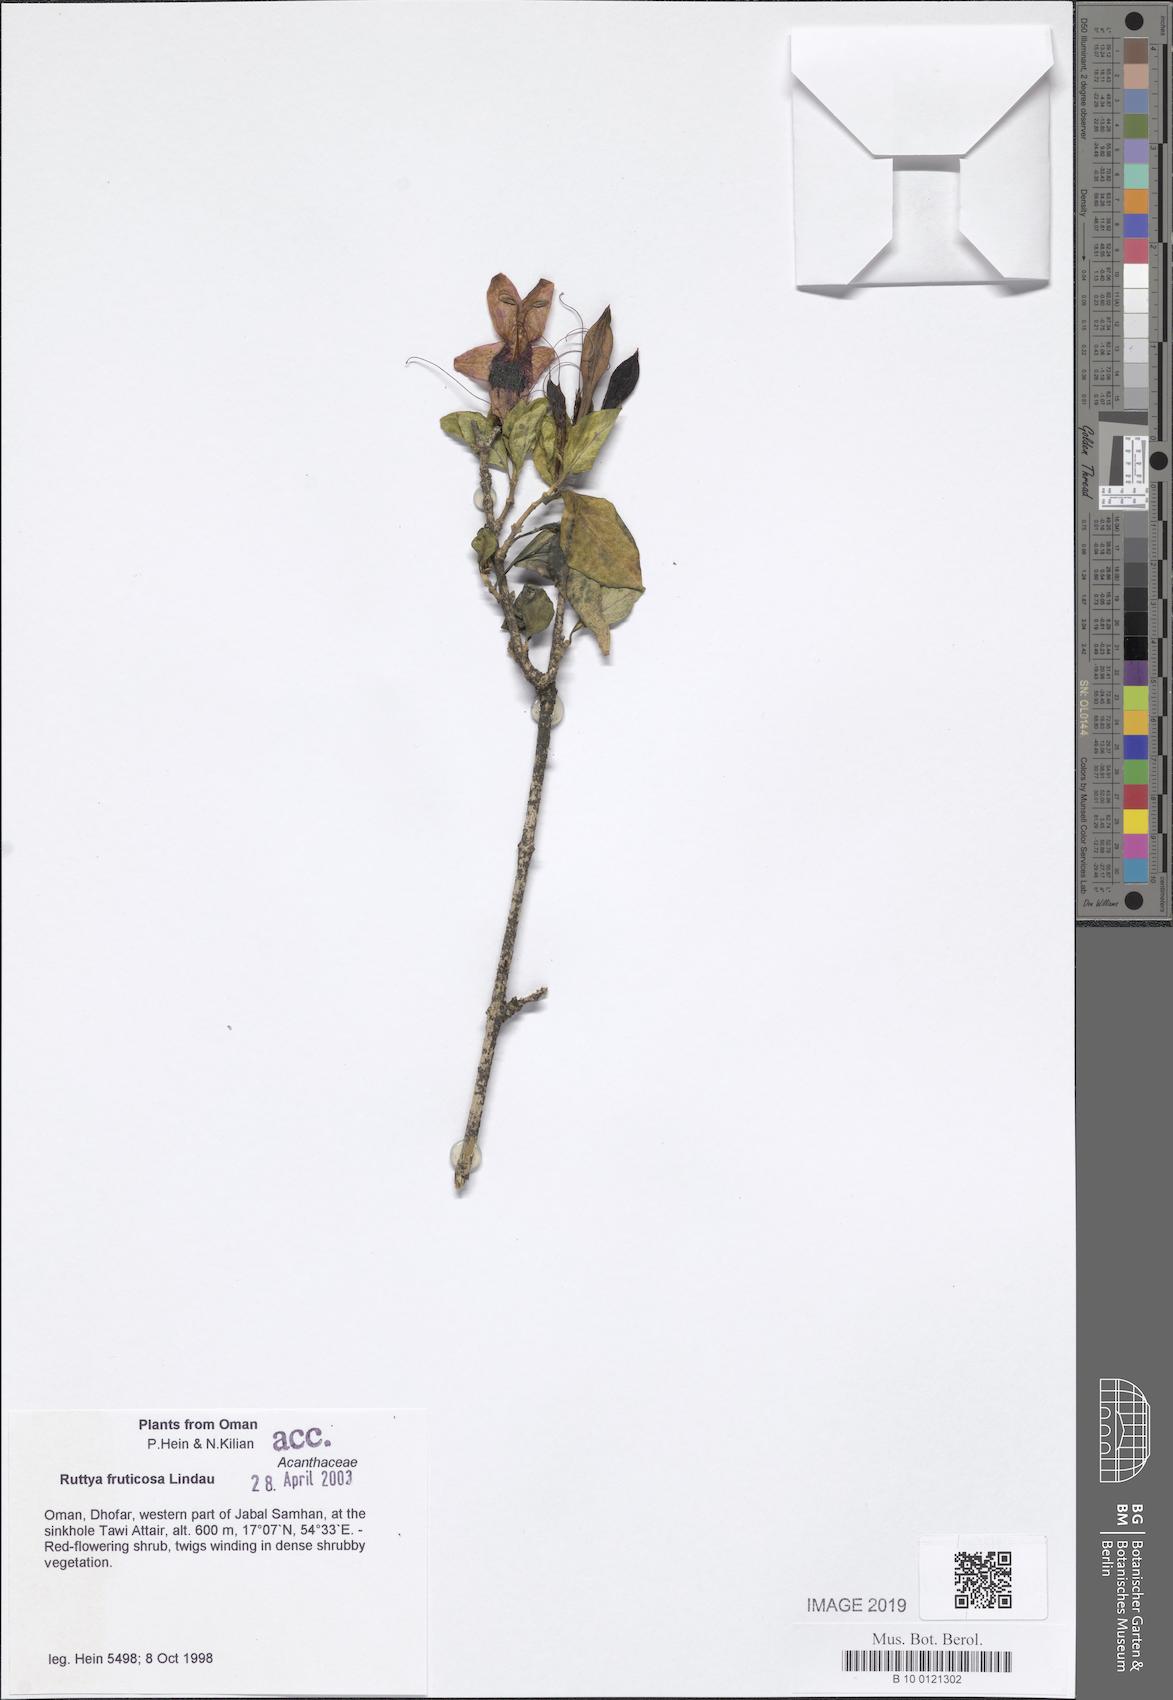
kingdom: Plantae
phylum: Tracheophyta
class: Magnoliopsida
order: Lamiales
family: Acanthaceae
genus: Ruttya
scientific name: Ruttya fruticosa
